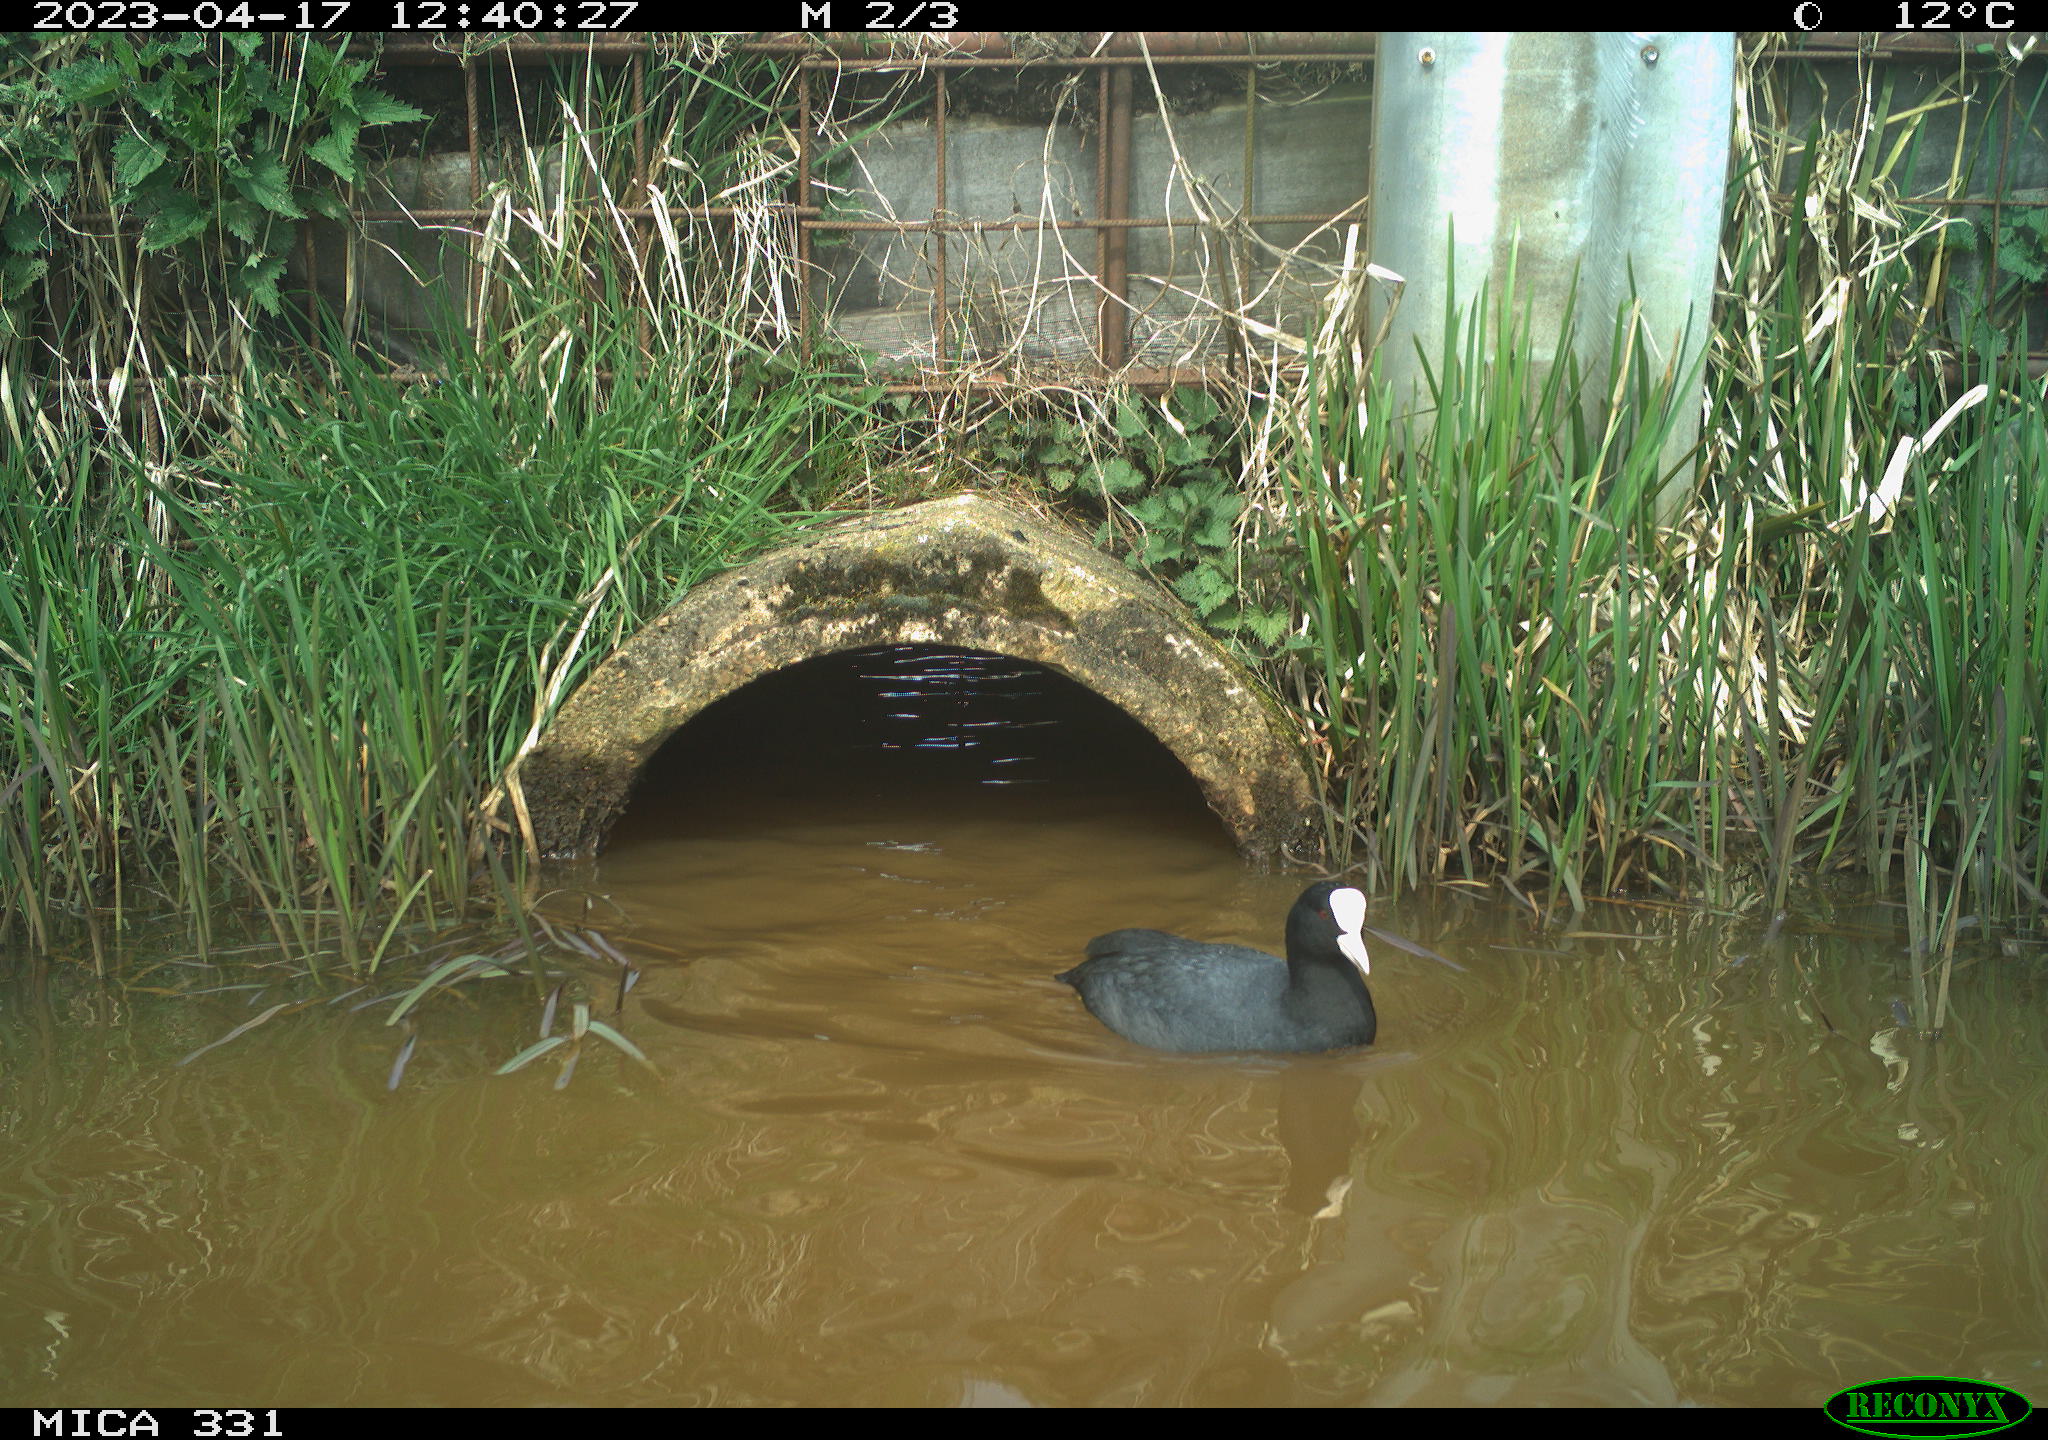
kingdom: Animalia
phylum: Chordata
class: Aves
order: Gruiformes
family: Rallidae
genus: Fulica
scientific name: Fulica atra
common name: Eurasian coot
